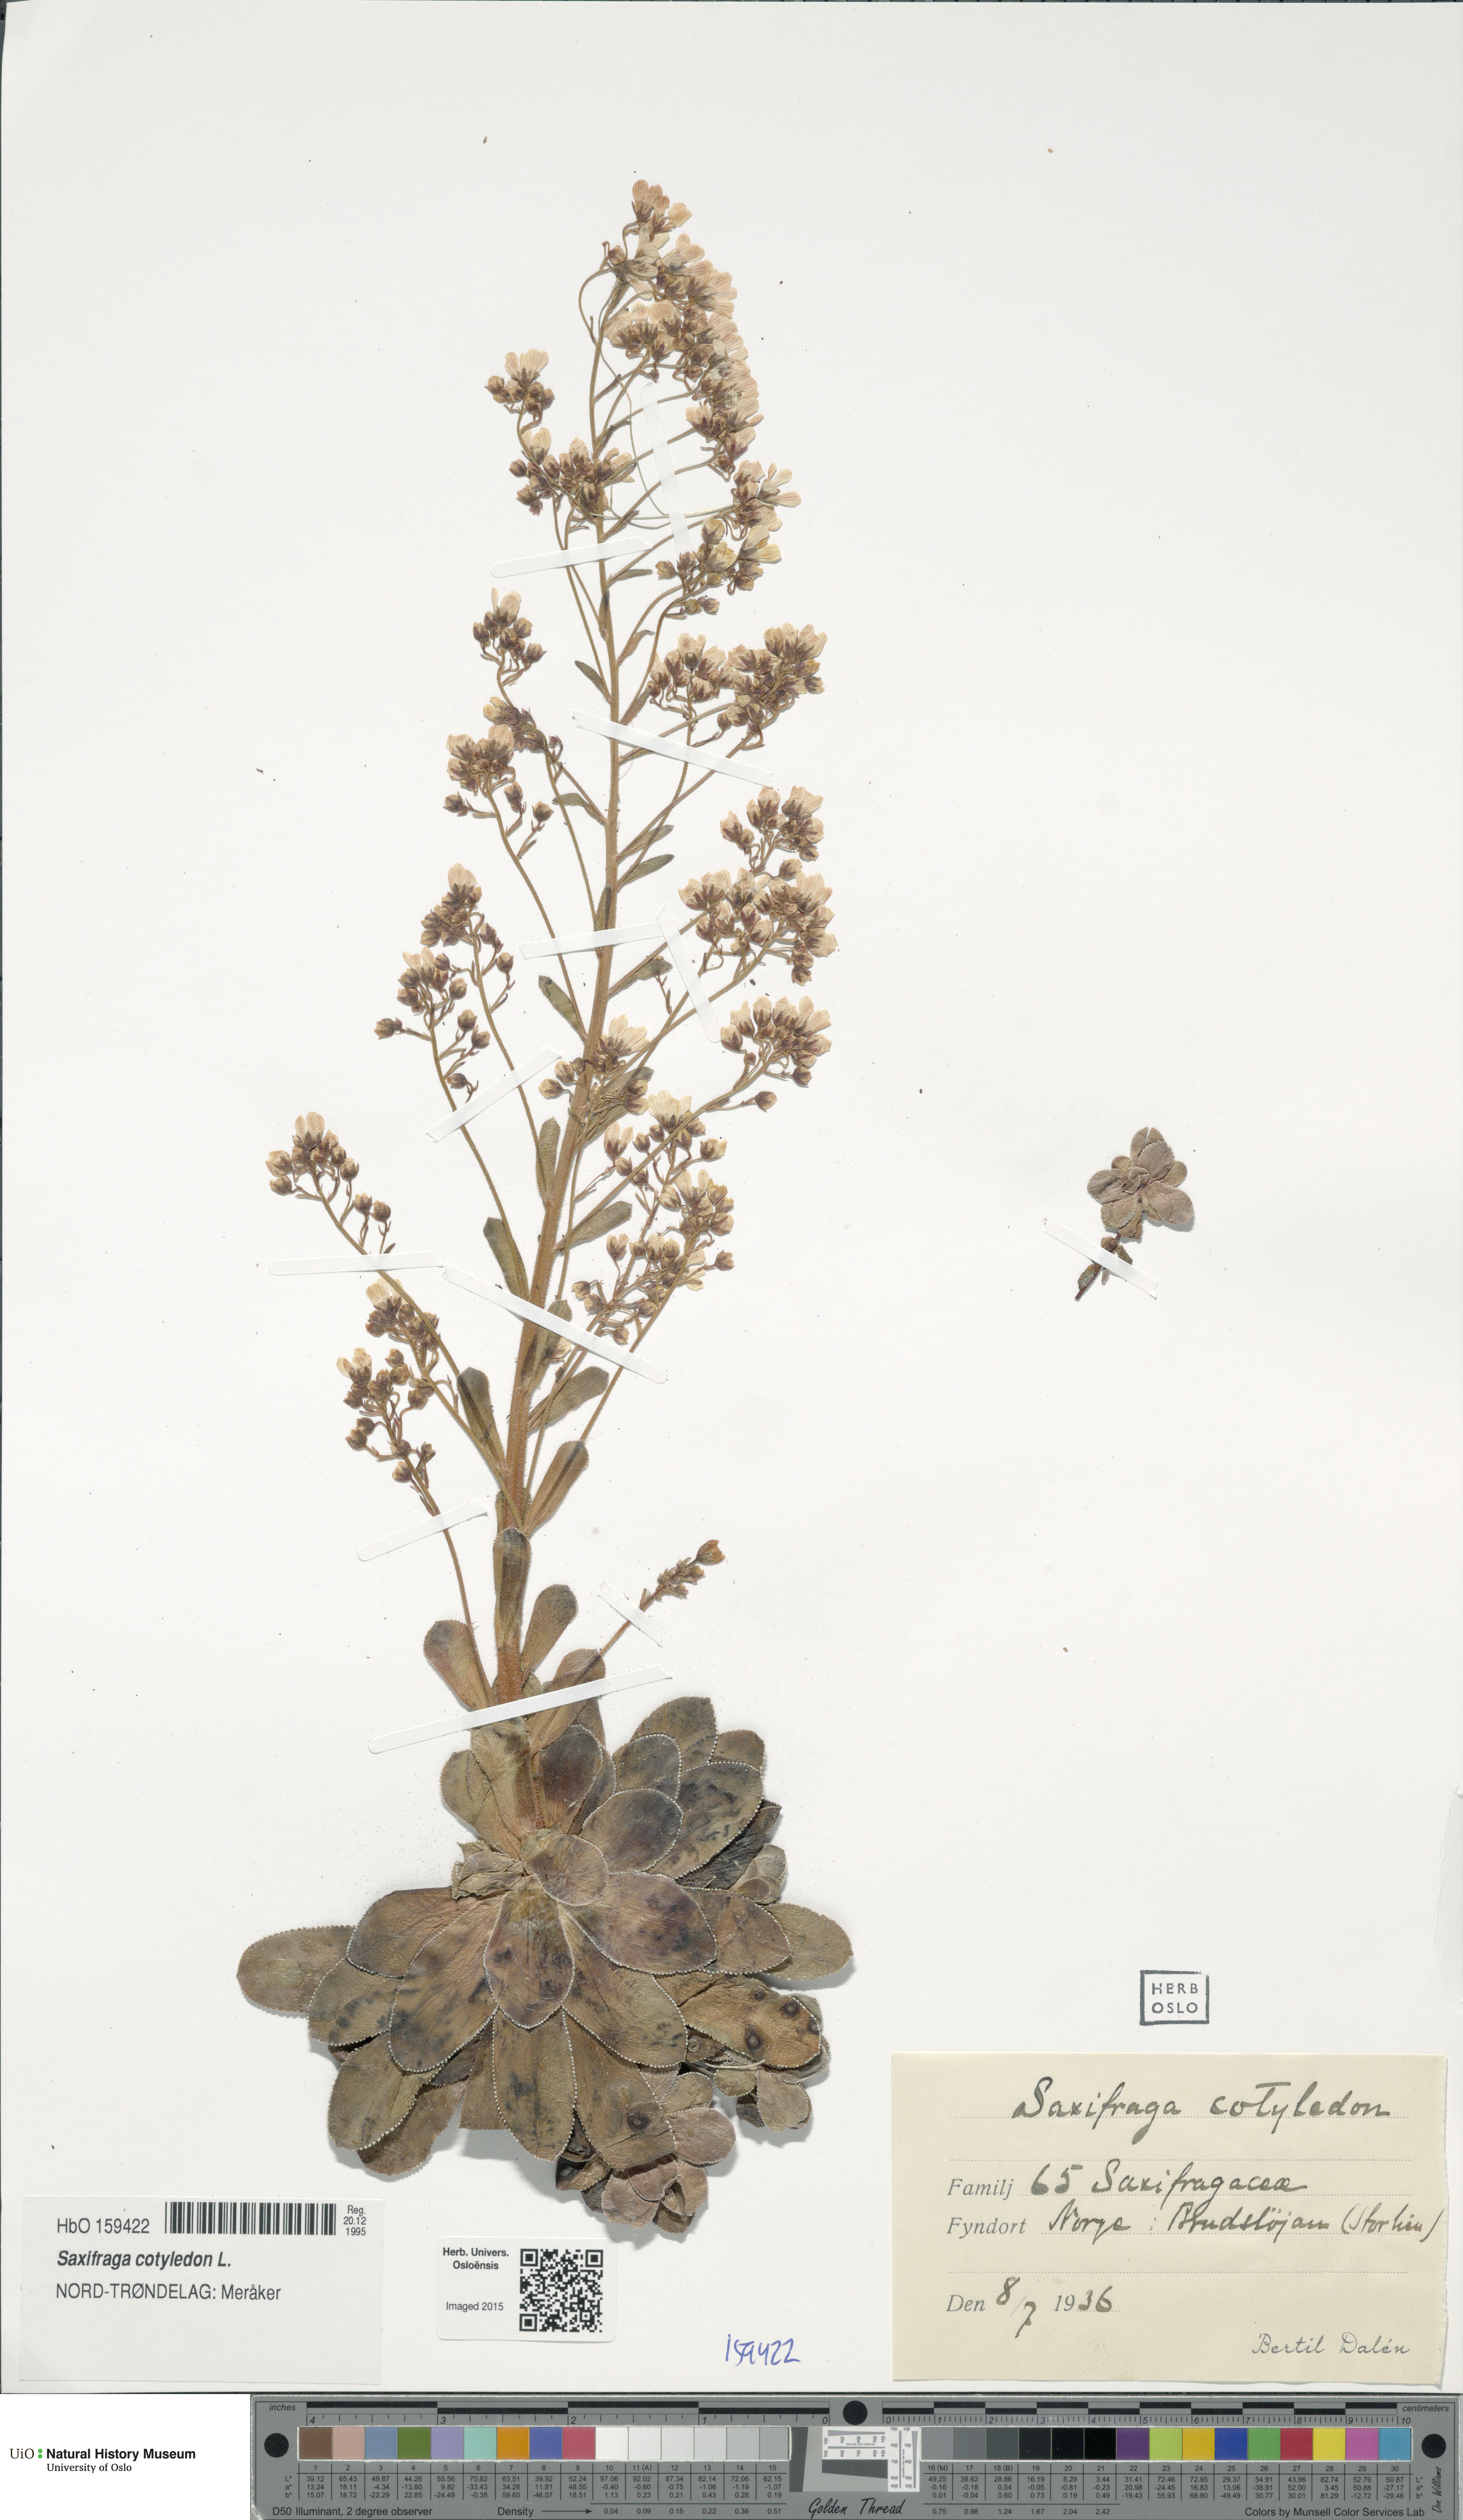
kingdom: Plantae
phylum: Tracheophyta
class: Magnoliopsida
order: Saxifragales
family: Saxifragaceae
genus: Saxifraga
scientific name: Saxifraga cotyledon
